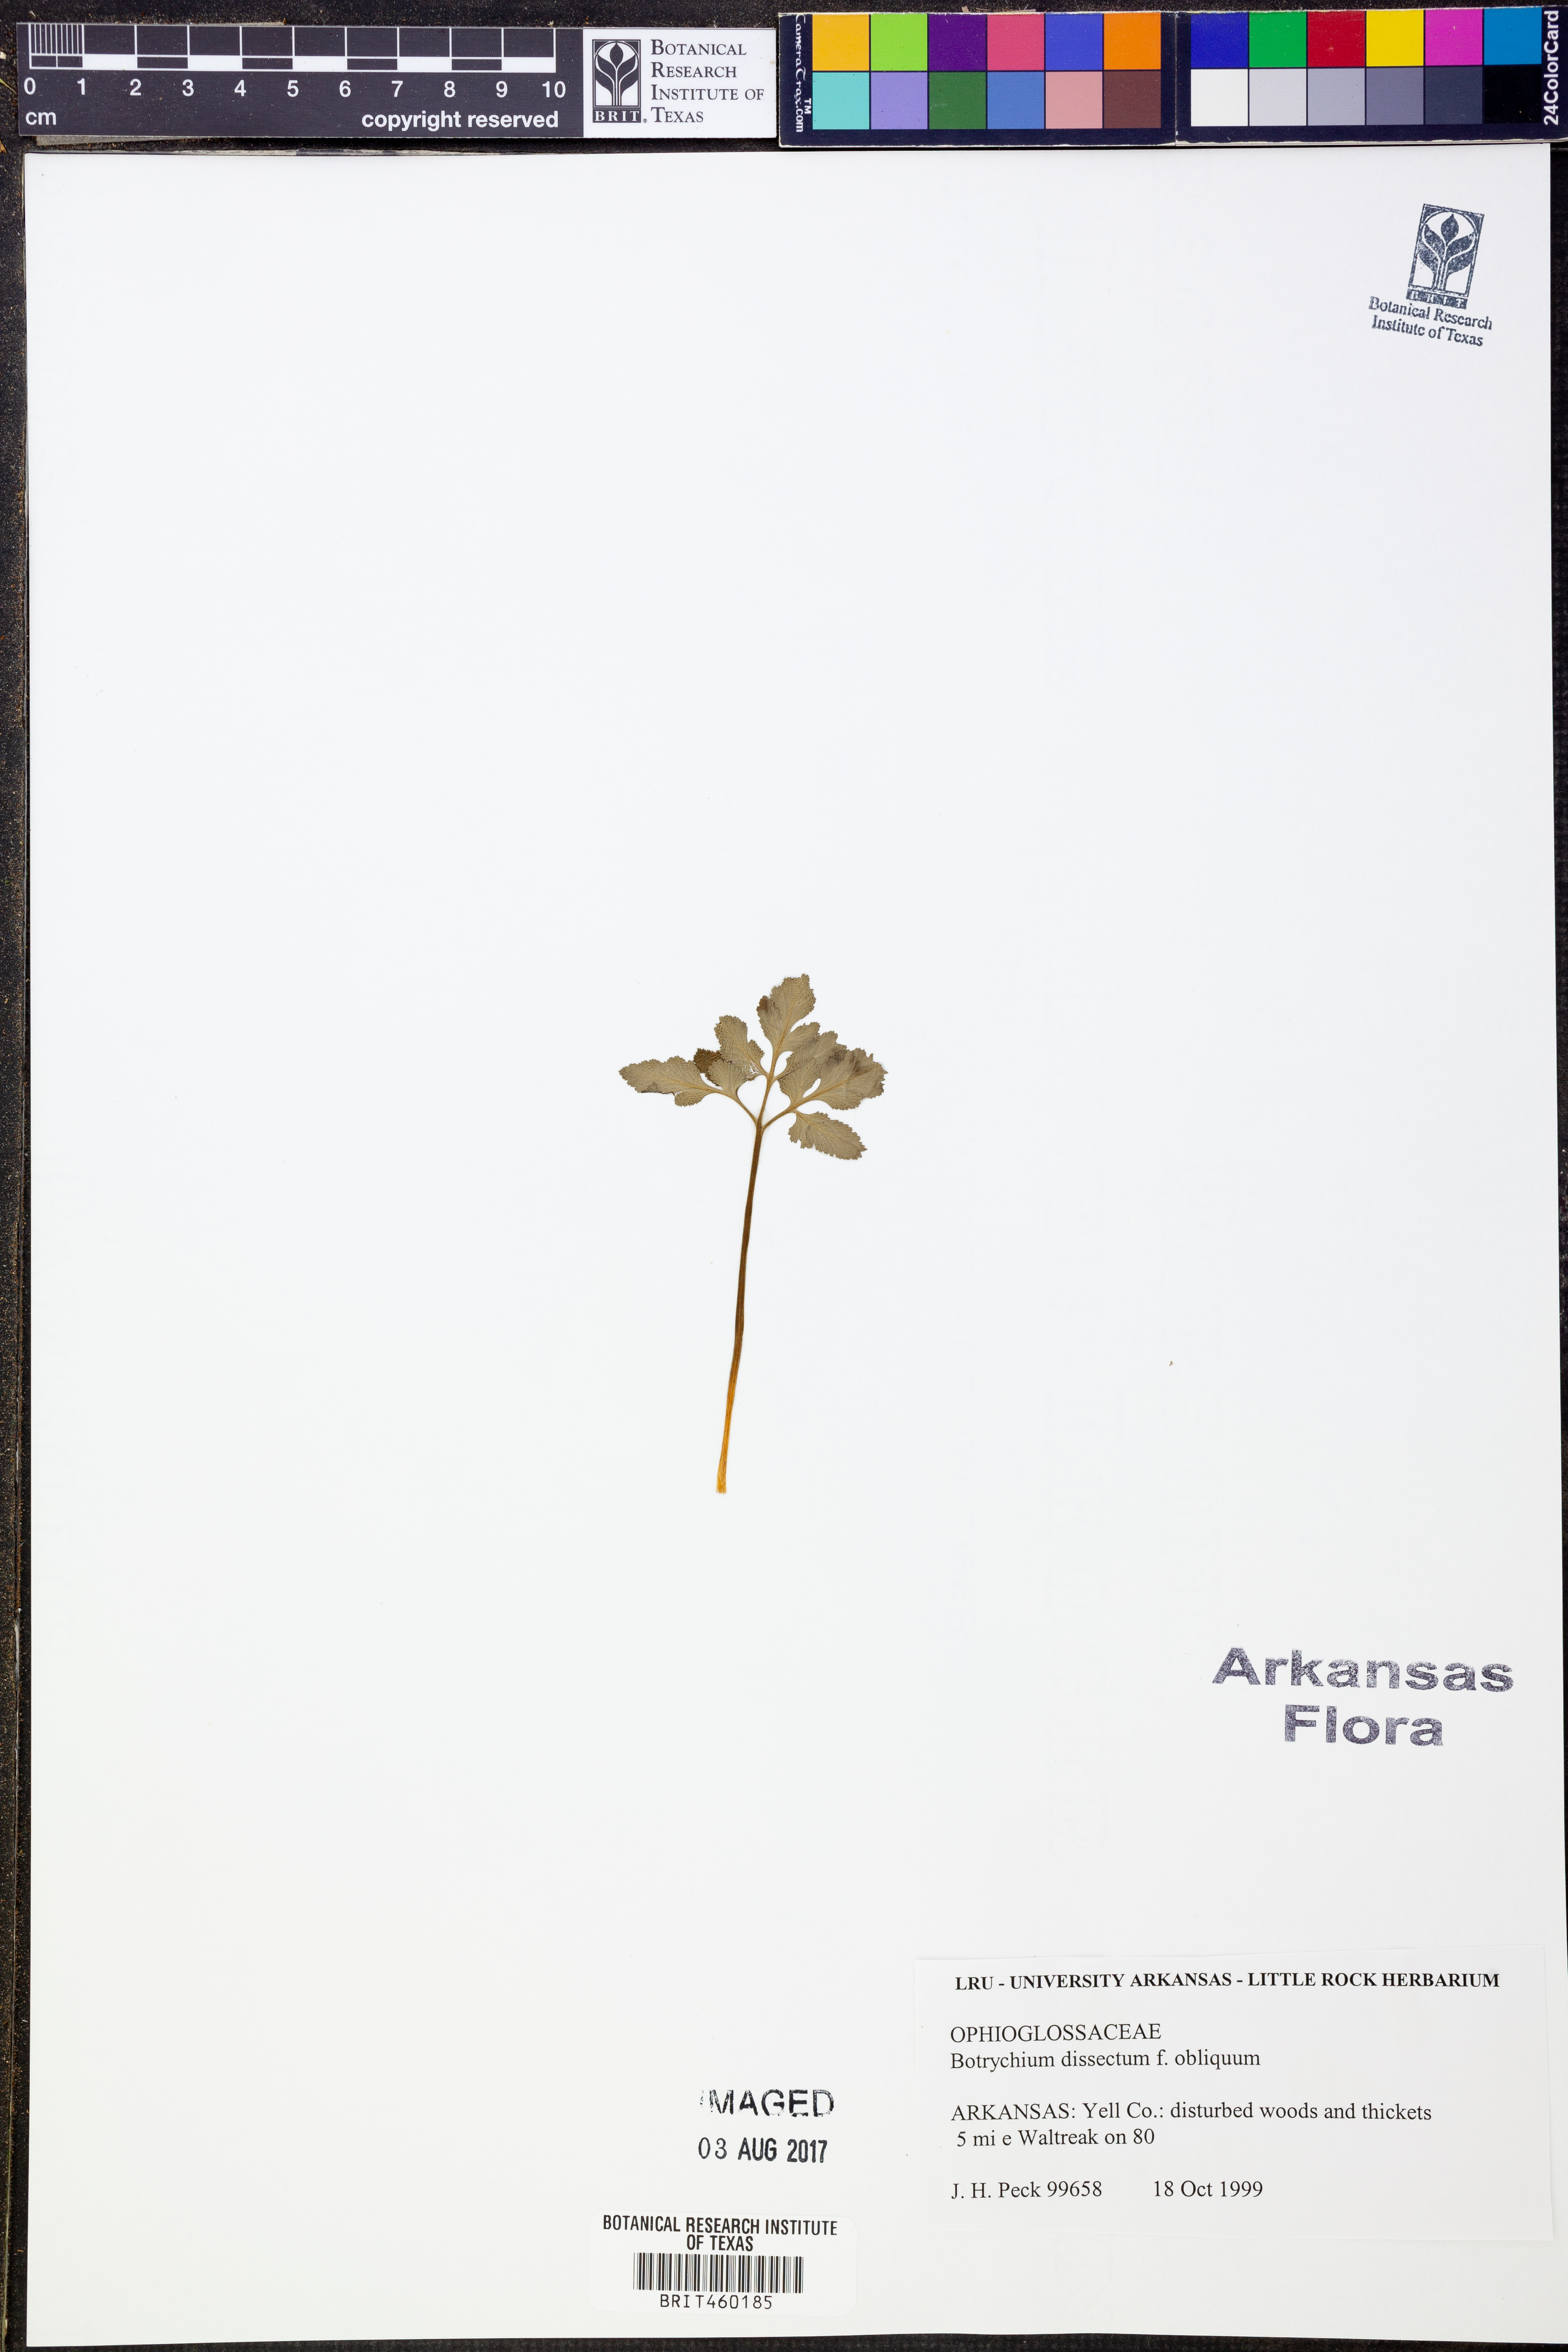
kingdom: Plantae
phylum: Tracheophyta
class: Polypodiopsida
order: Ophioglossales
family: Ophioglossaceae
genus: Sceptridium
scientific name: Sceptridium dissectum
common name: Cut-leaved grapefern
